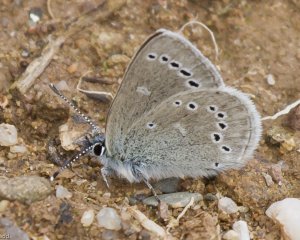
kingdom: Animalia
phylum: Arthropoda
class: Insecta
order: Lepidoptera
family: Lycaenidae
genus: Glaucopsyche
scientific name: Glaucopsyche lygdamus
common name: Silvery Blue
